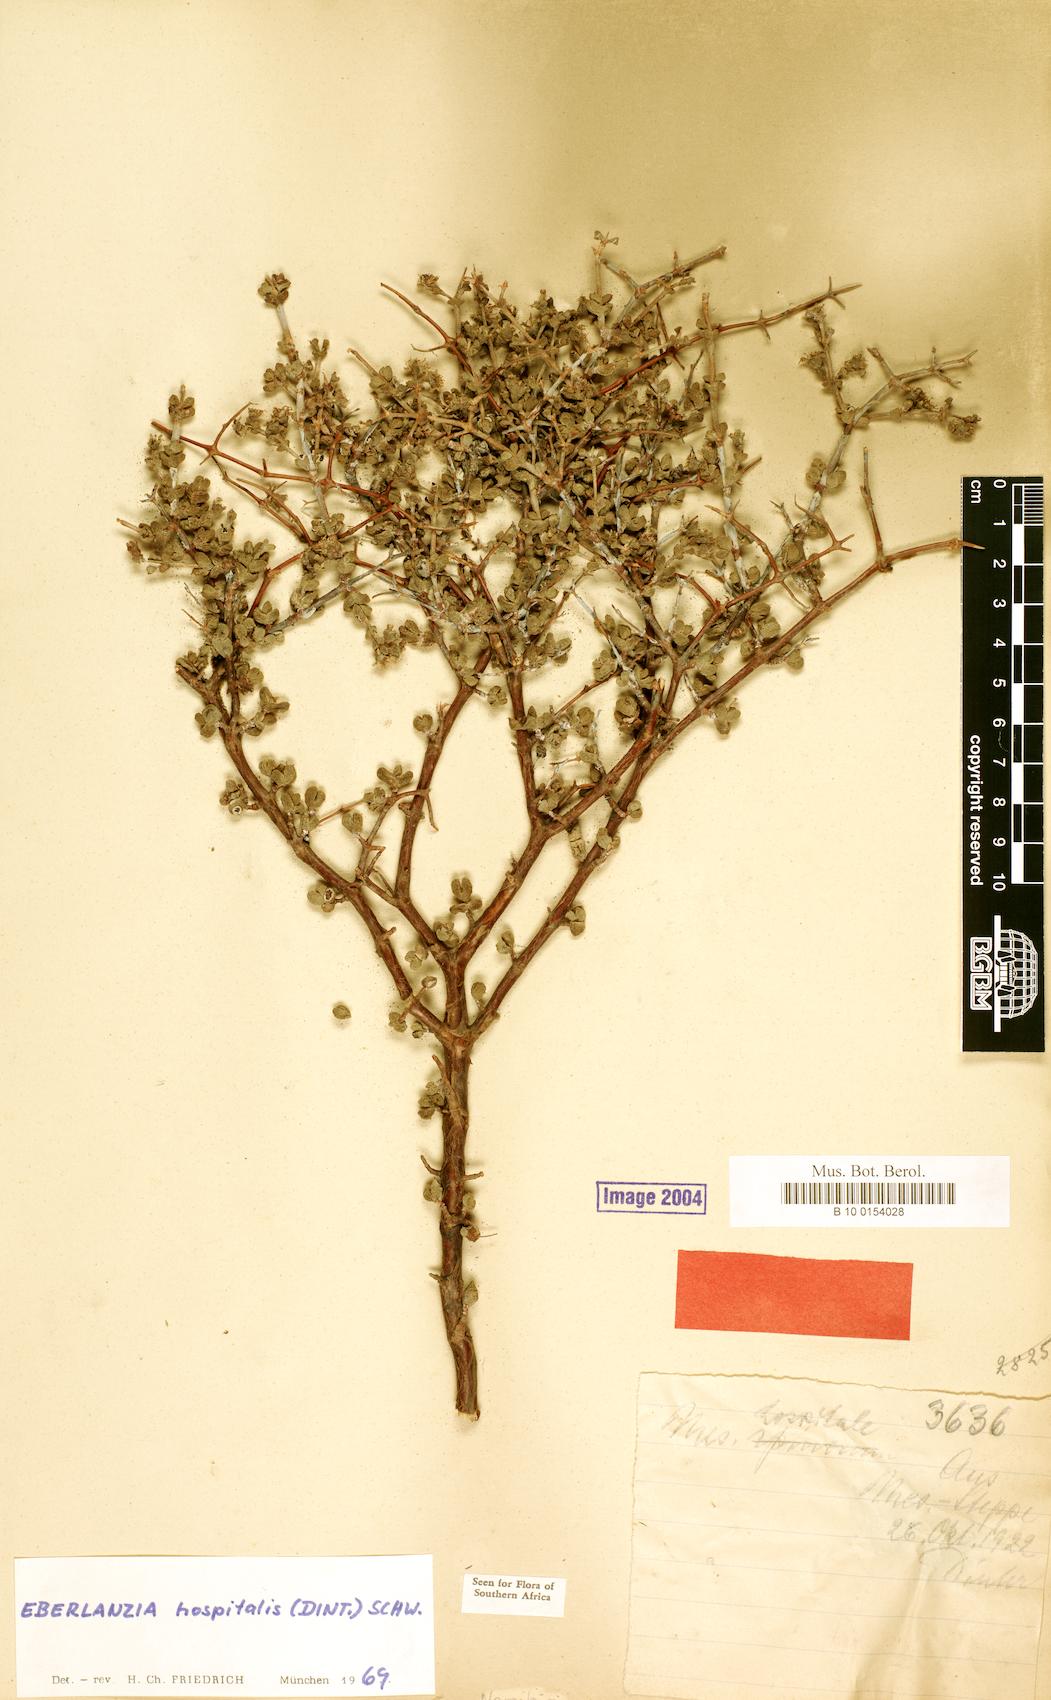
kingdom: Plantae
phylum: Tracheophyta
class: Magnoliopsida
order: Caryophyllales
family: Aizoaceae
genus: Ruschia
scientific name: Ruschia spinosa
